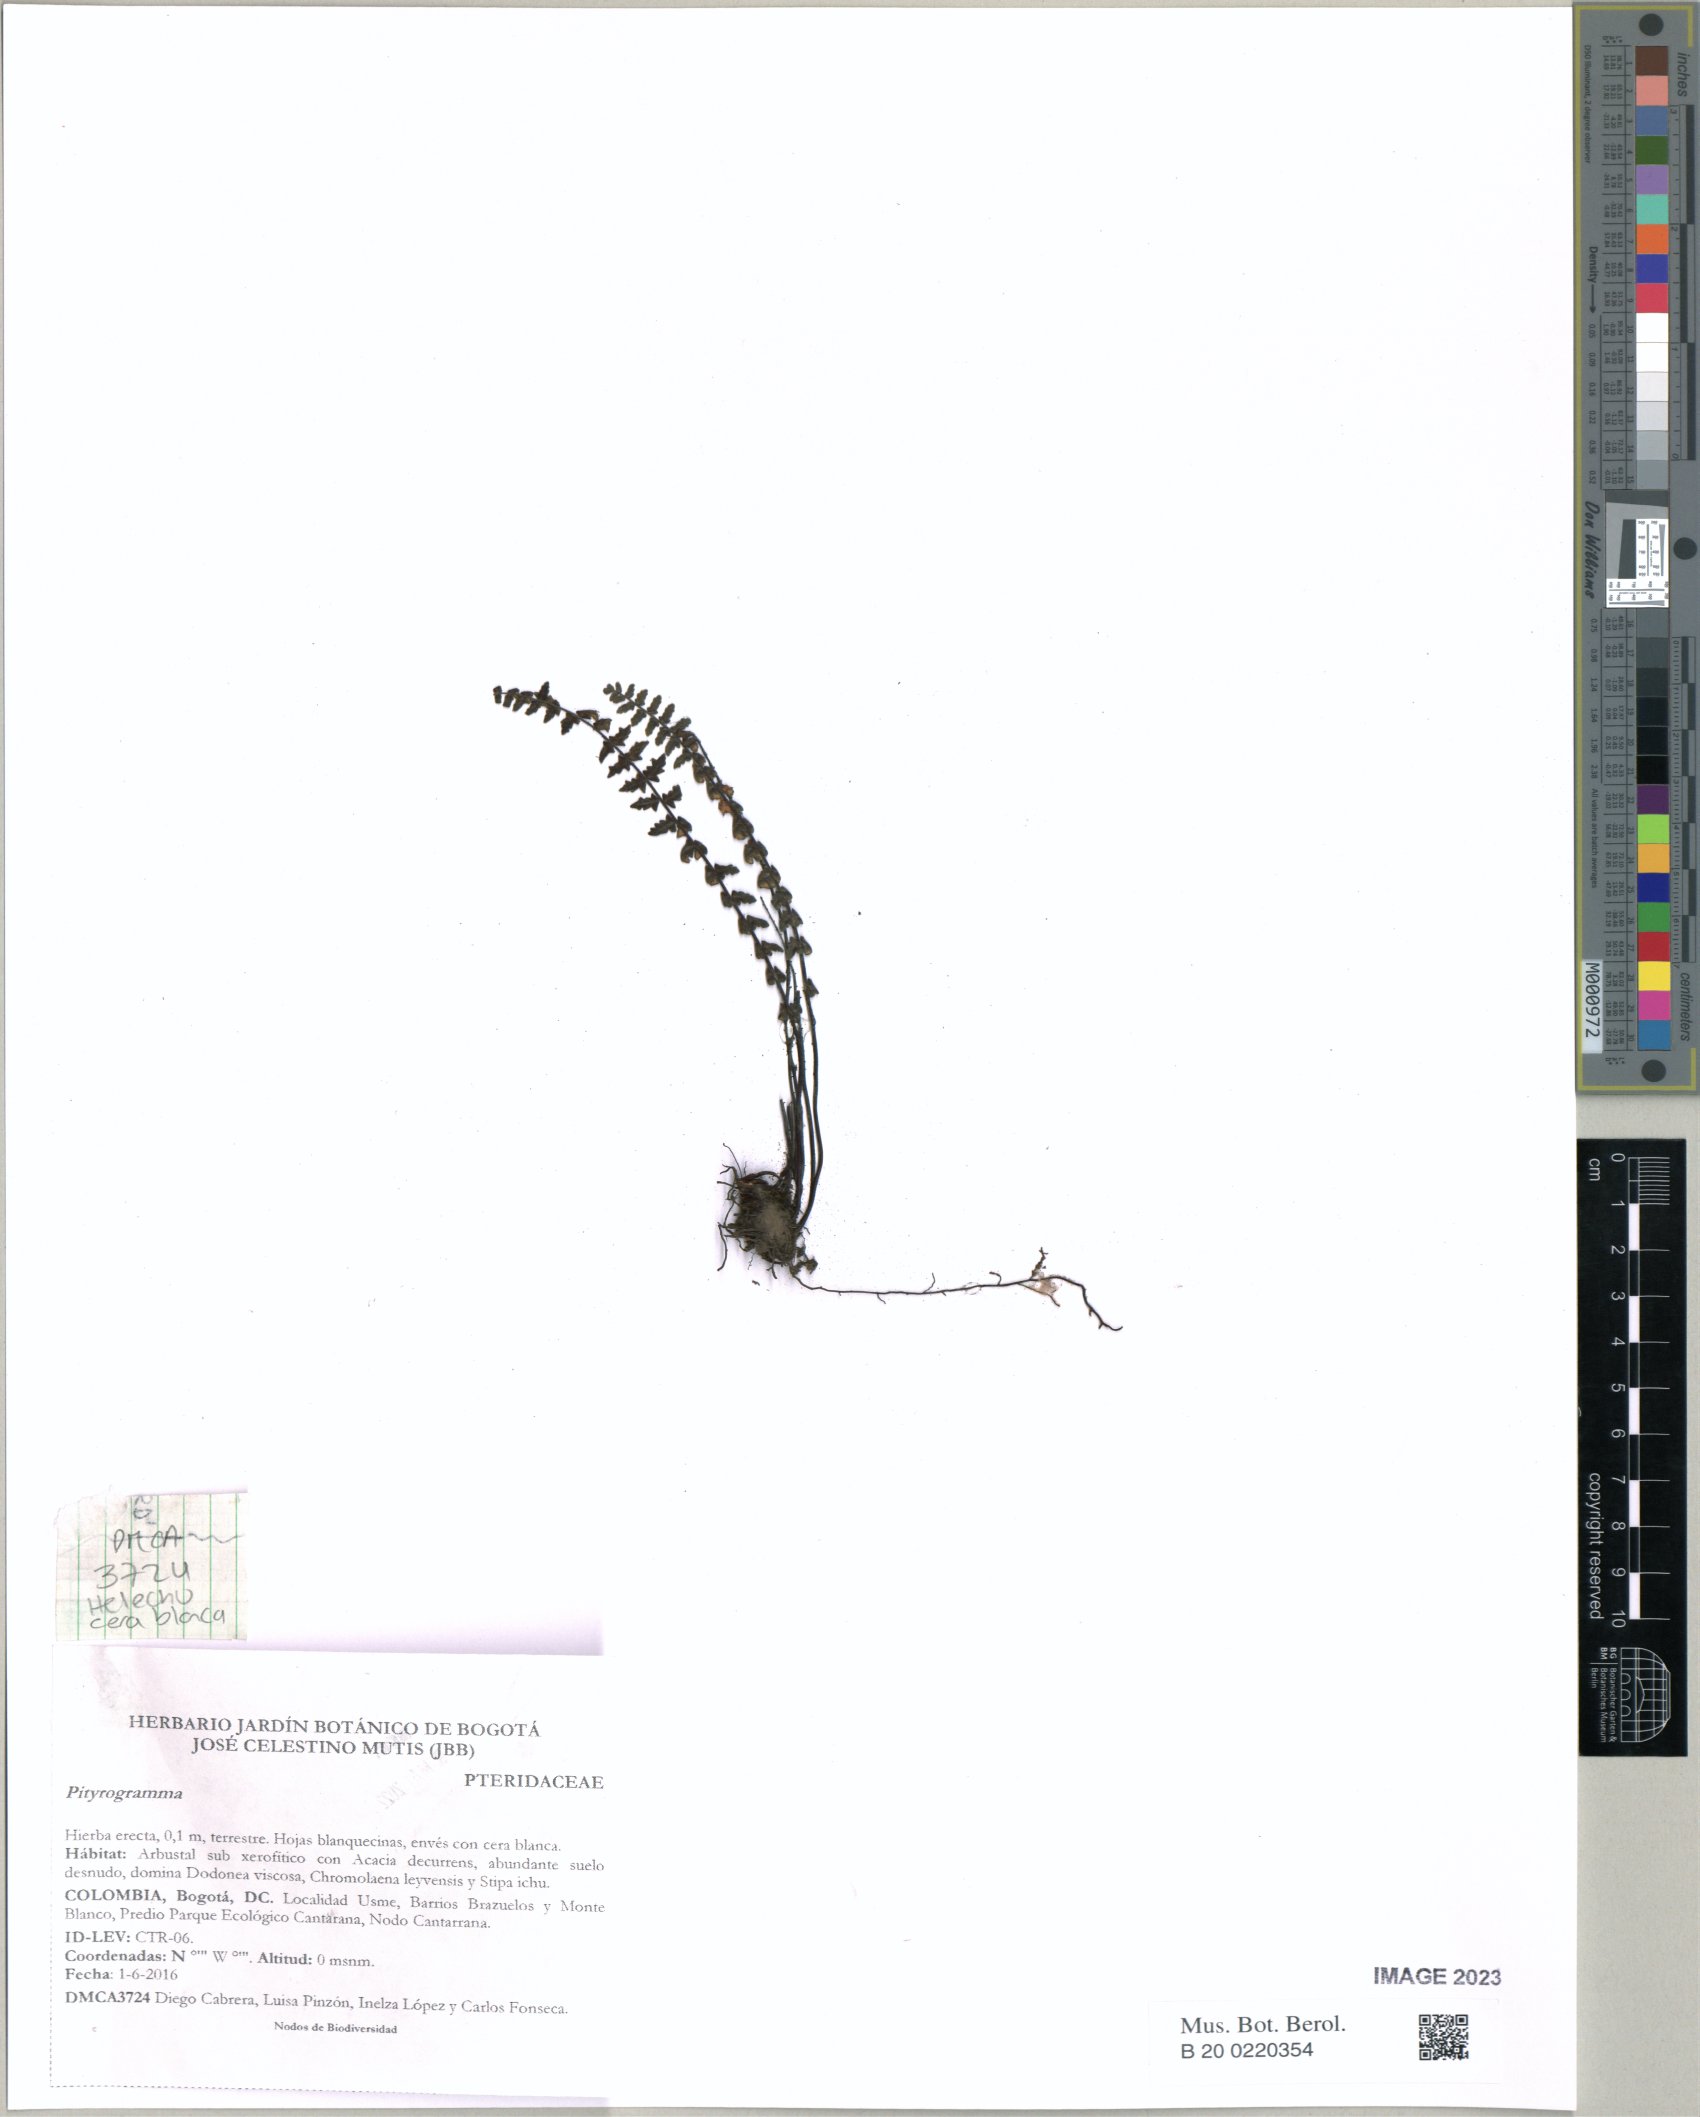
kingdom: Plantae
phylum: Tracheophyta
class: Polypodiopsida
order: Polypodiales
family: Pteridaceae
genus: Pityrogramma
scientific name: Pityrogramma
